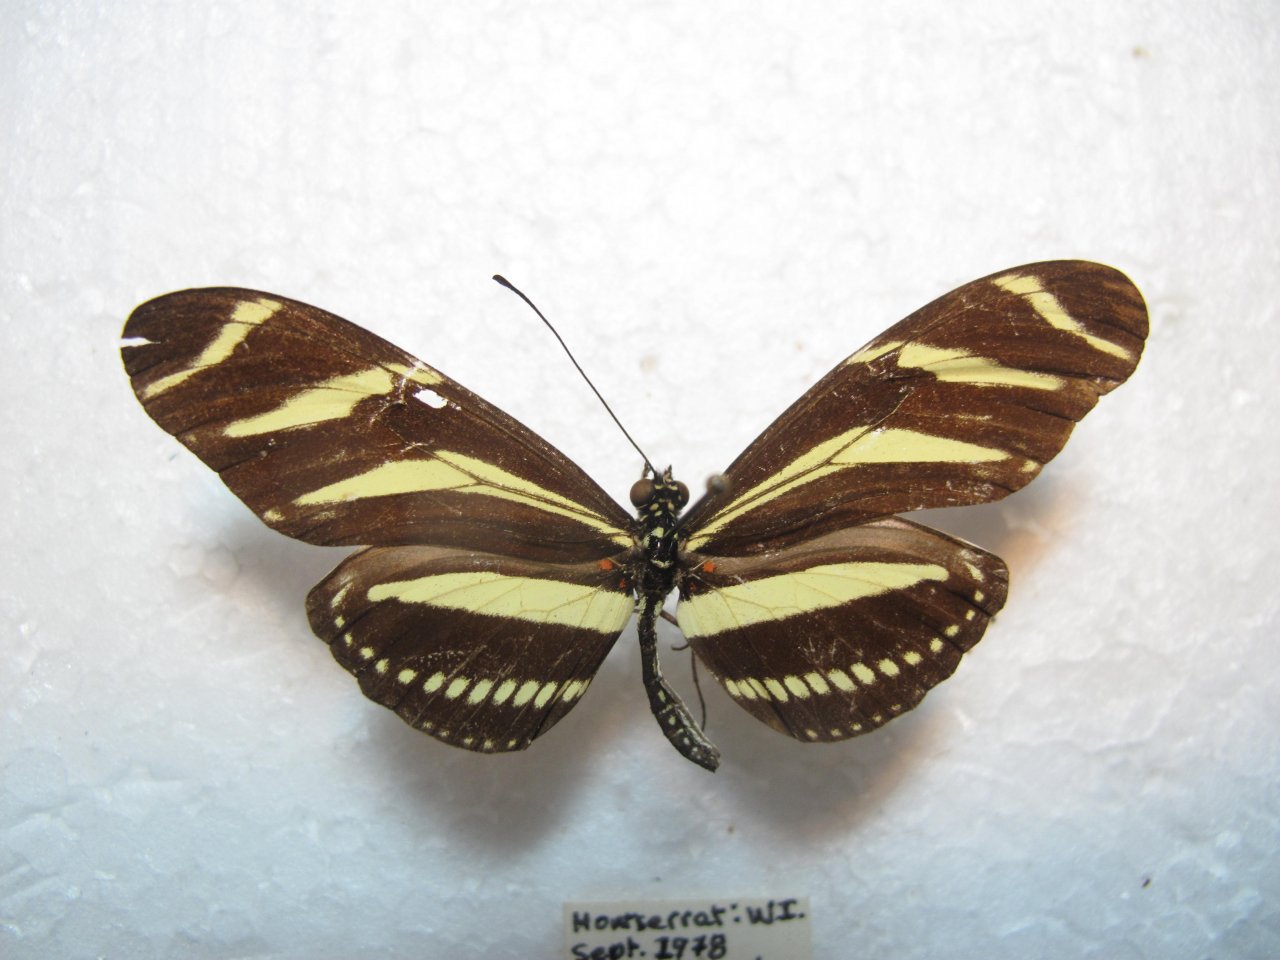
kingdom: Animalia
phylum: Arthropoda
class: Insecta
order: Lepidoptera
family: Nymphalidae
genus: Heliconius
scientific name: Heliconius charithonia
